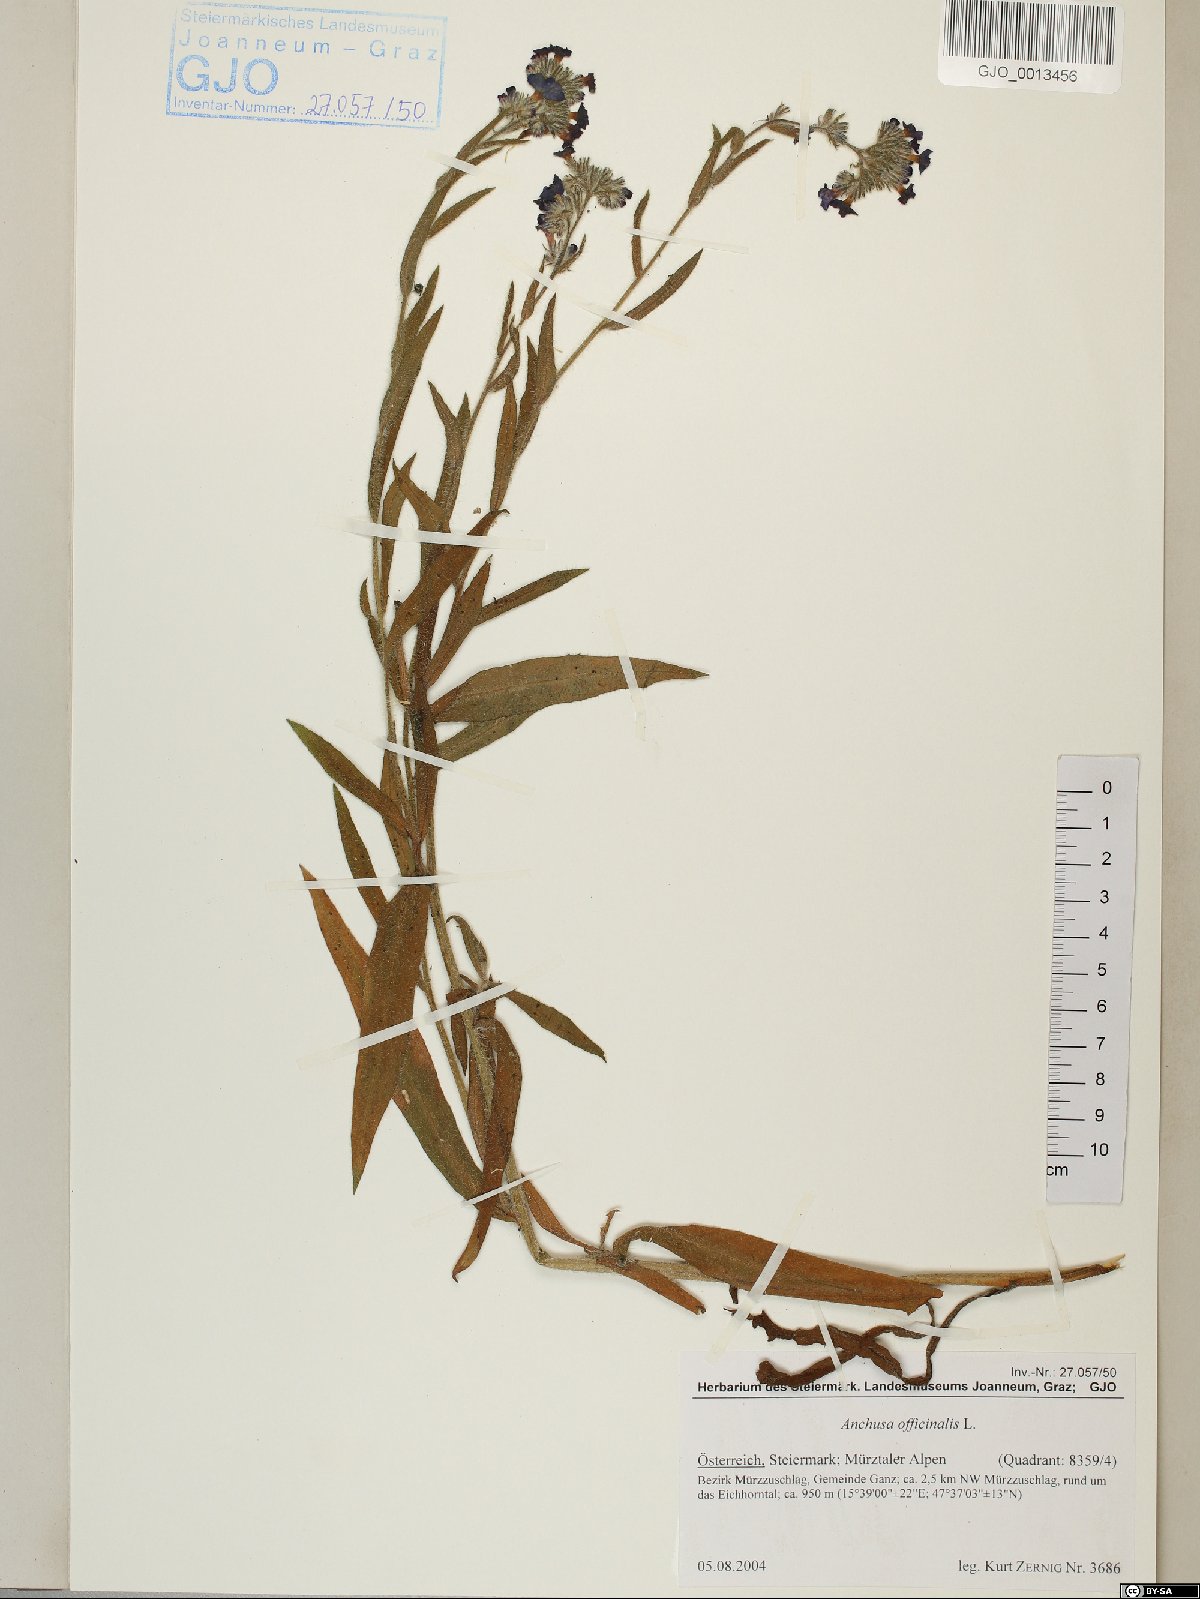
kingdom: Plantae
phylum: Tracheophyta
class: Magnoliopsida
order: Boraginales
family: Boraginaceae
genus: Anchusa
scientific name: Anchusa officinalis
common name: Alkanet
